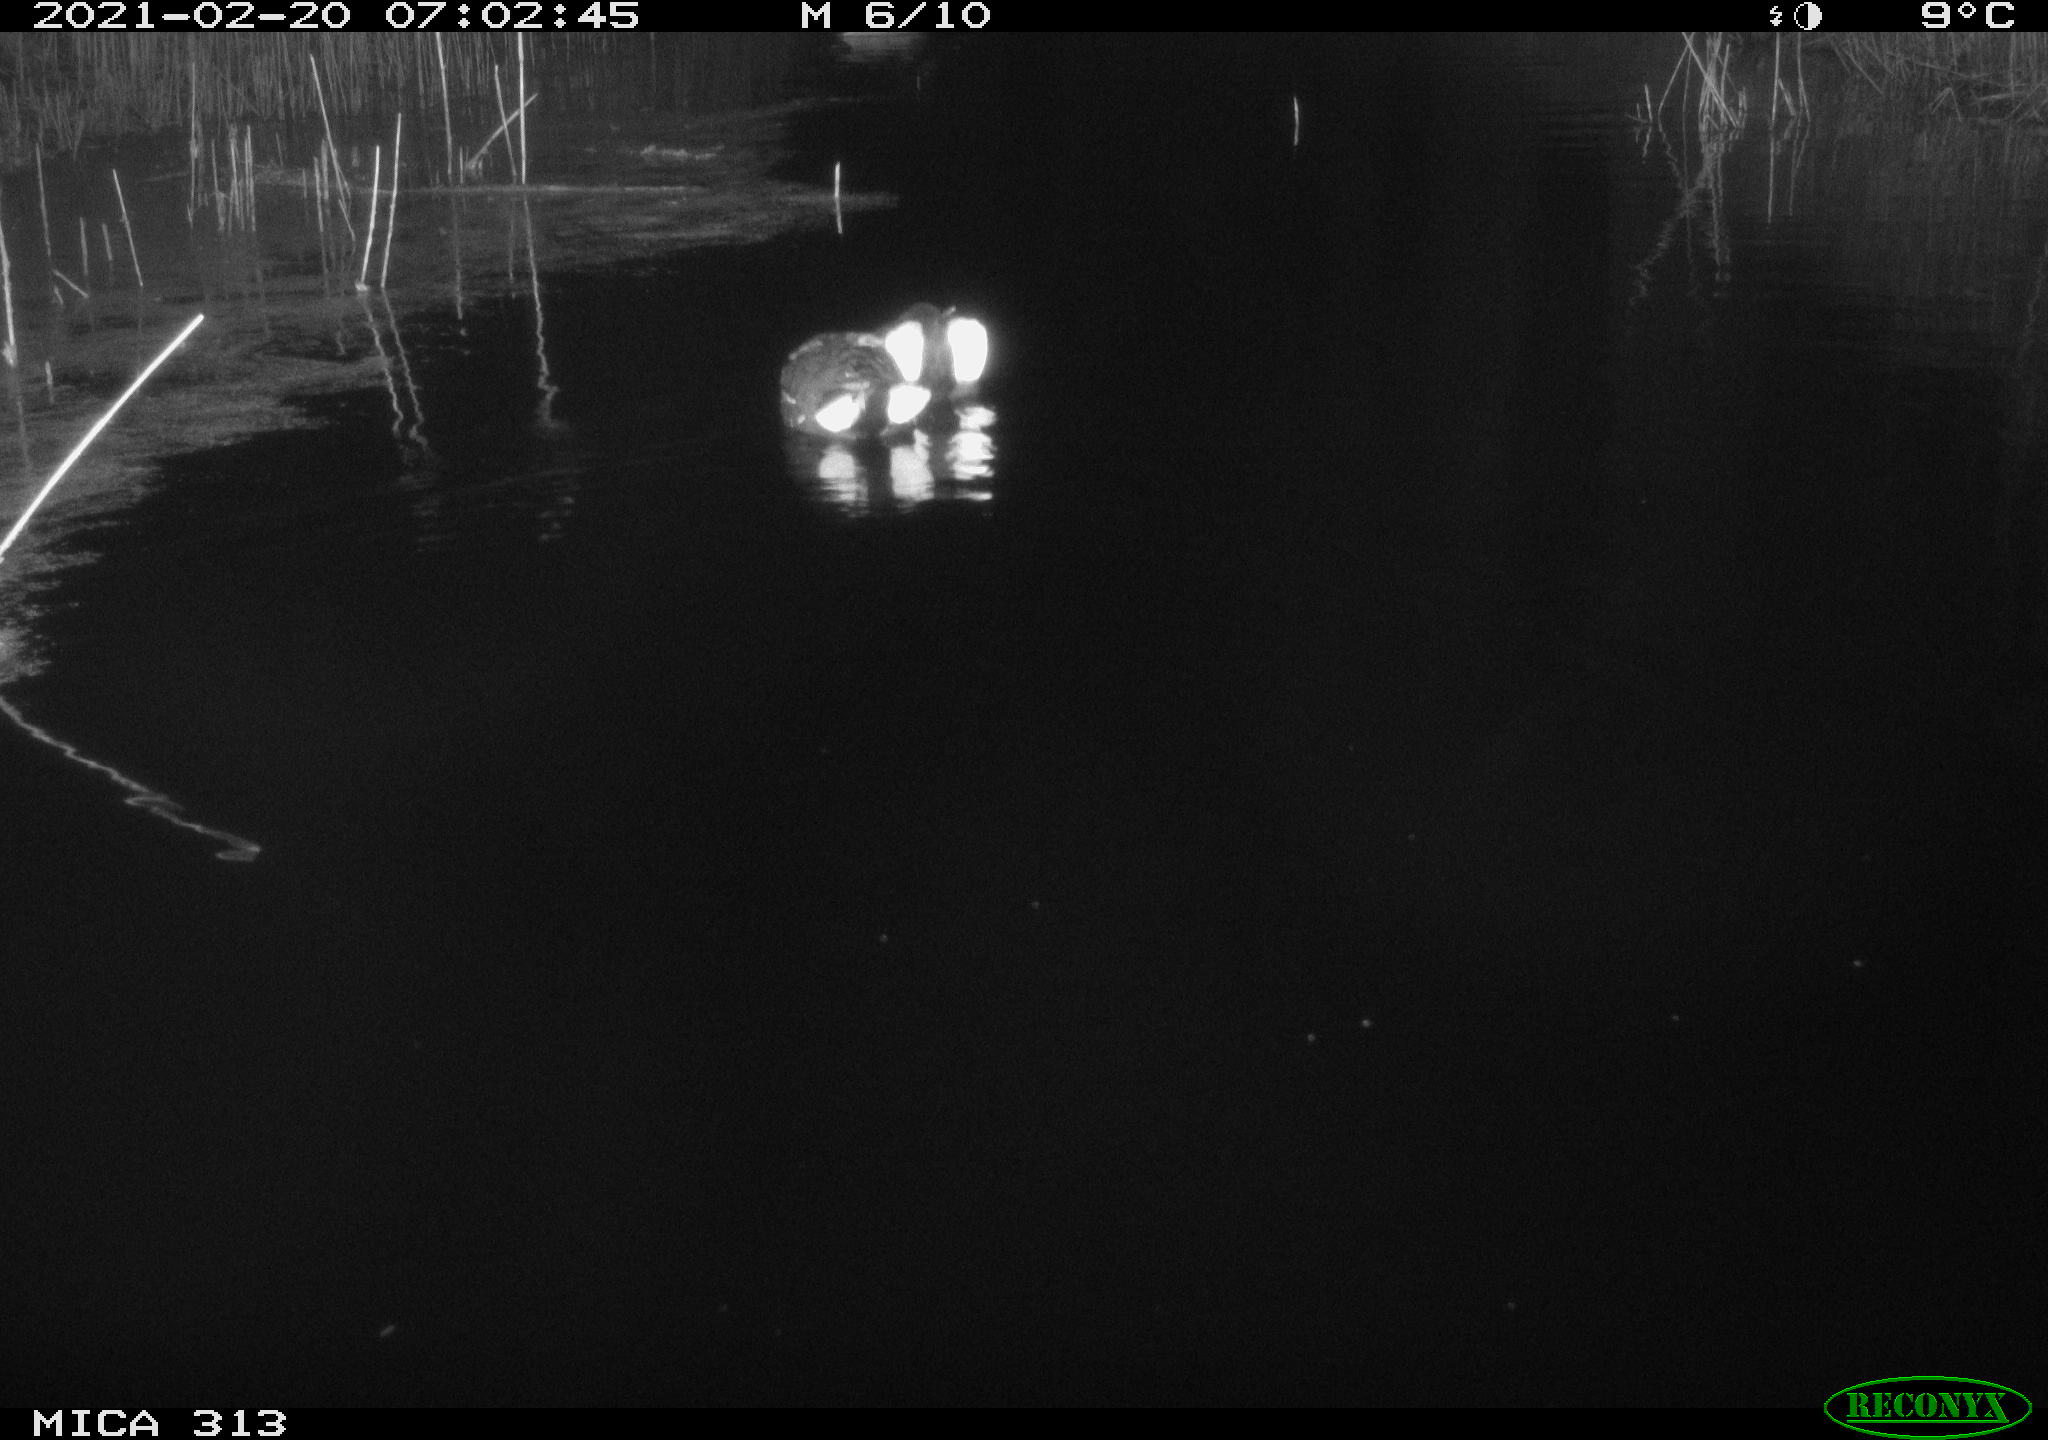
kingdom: Animalia
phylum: Chordata
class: Aves
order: Gruiformes
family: Rallidae
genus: Gallinula
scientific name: Gallinula chloropus
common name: Common moorhen
